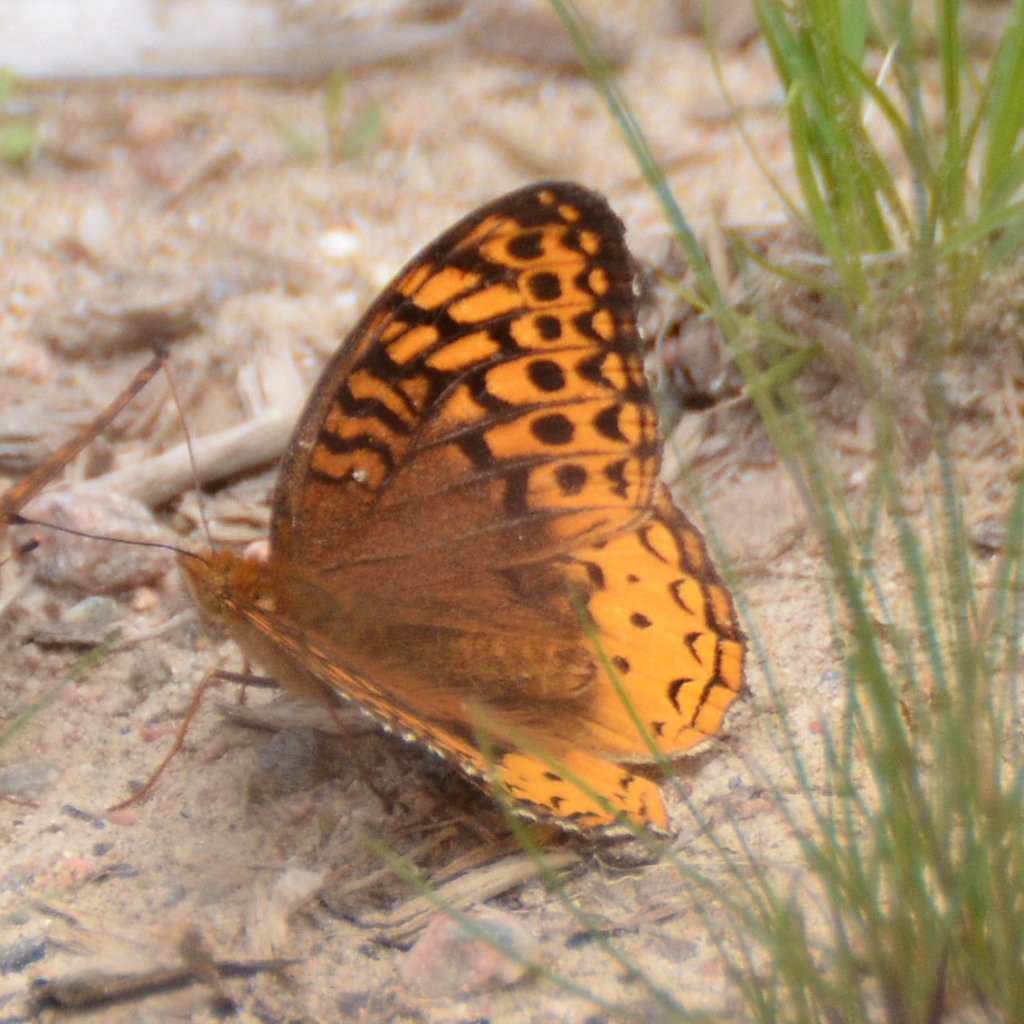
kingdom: Animalia
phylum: Arthropoda
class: Insecta
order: Lepidoptera
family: Nymphalidae
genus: Speyeria
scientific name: Speyeria cybele
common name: Great Spangled Fritillary
